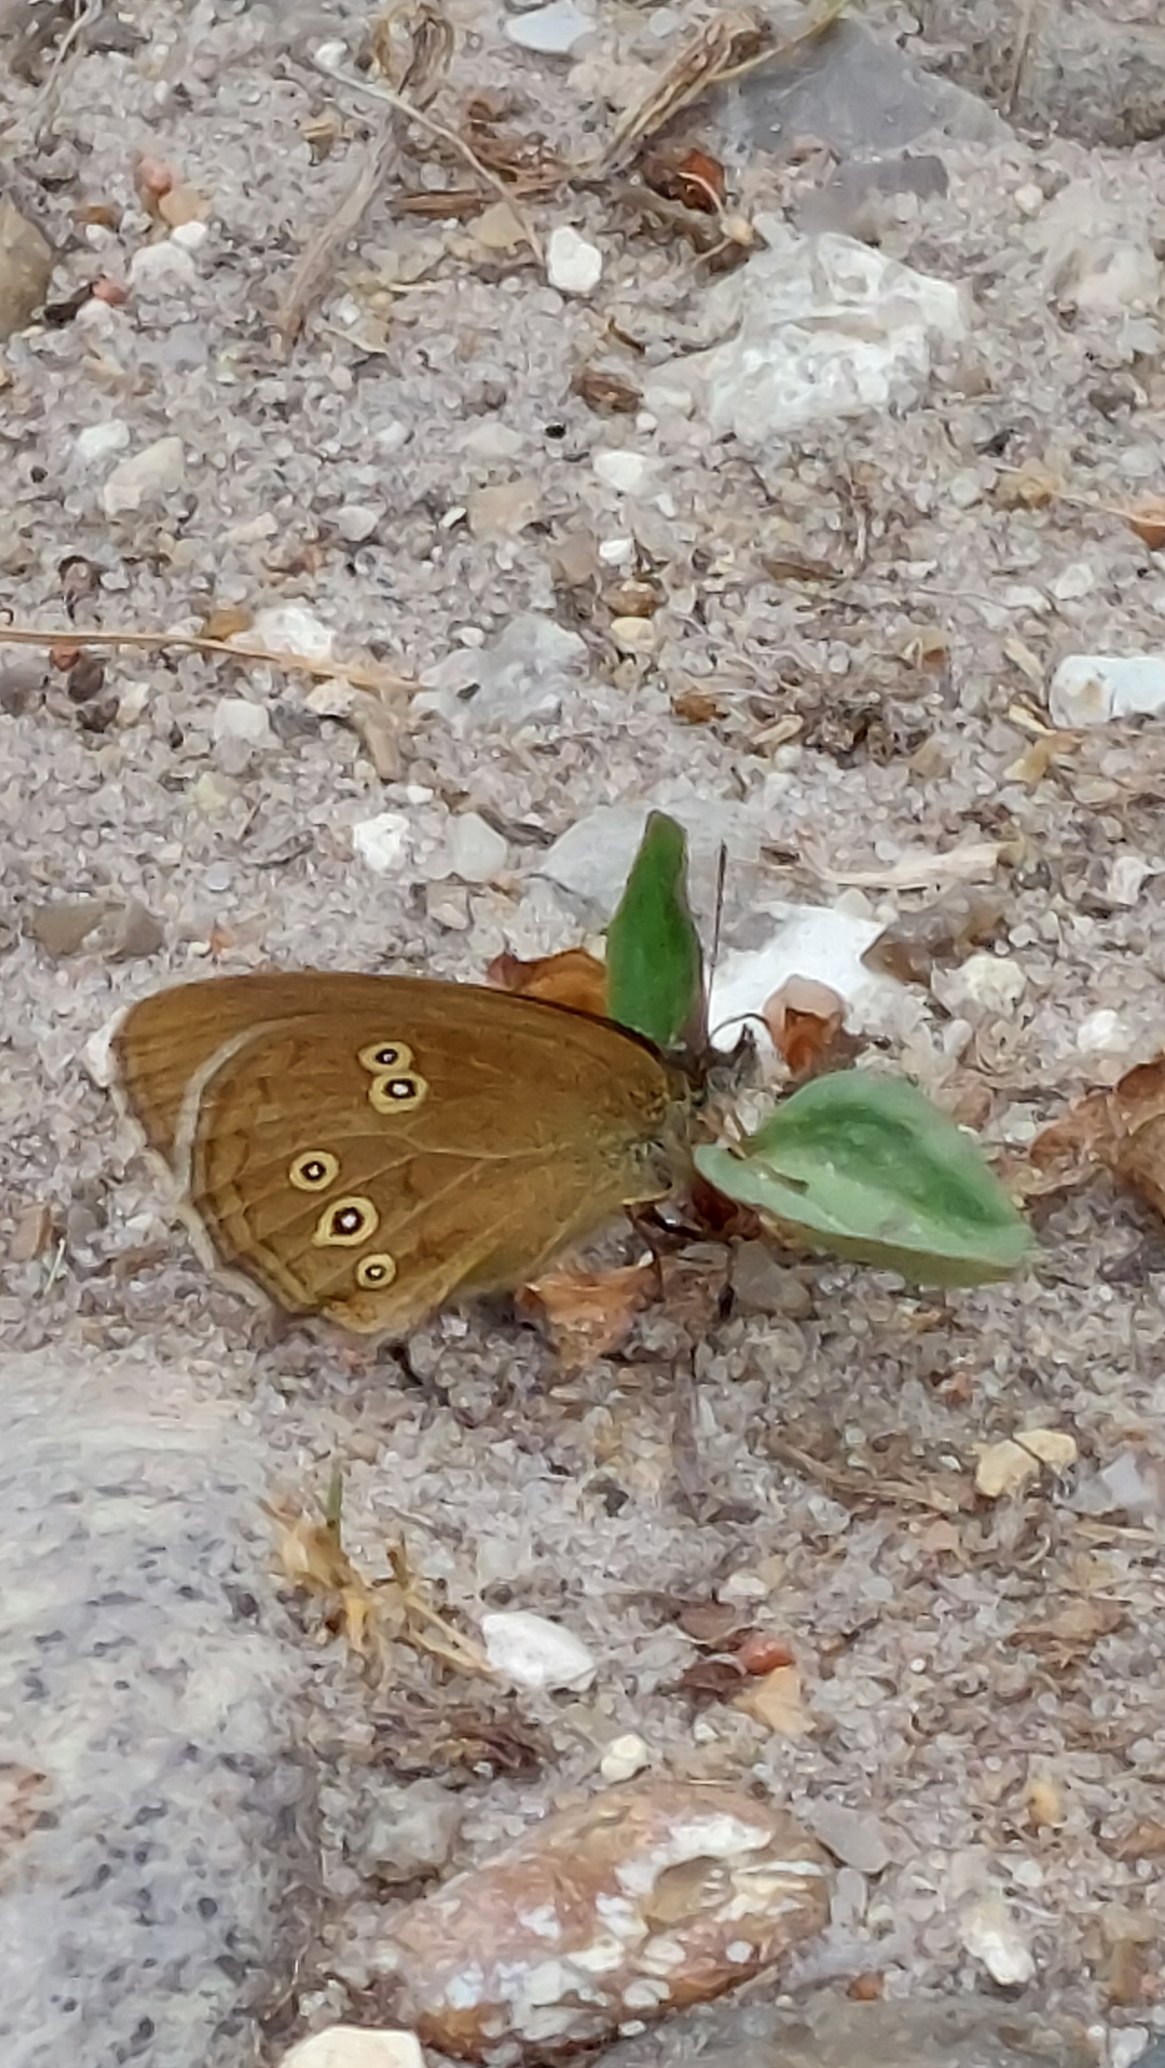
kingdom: Animalia
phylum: Arthropoda
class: Insecta
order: Lepidoptera
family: Nymphalidae
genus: Aphantopus
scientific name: Aphantopus hyperantus
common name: Engrandøje
